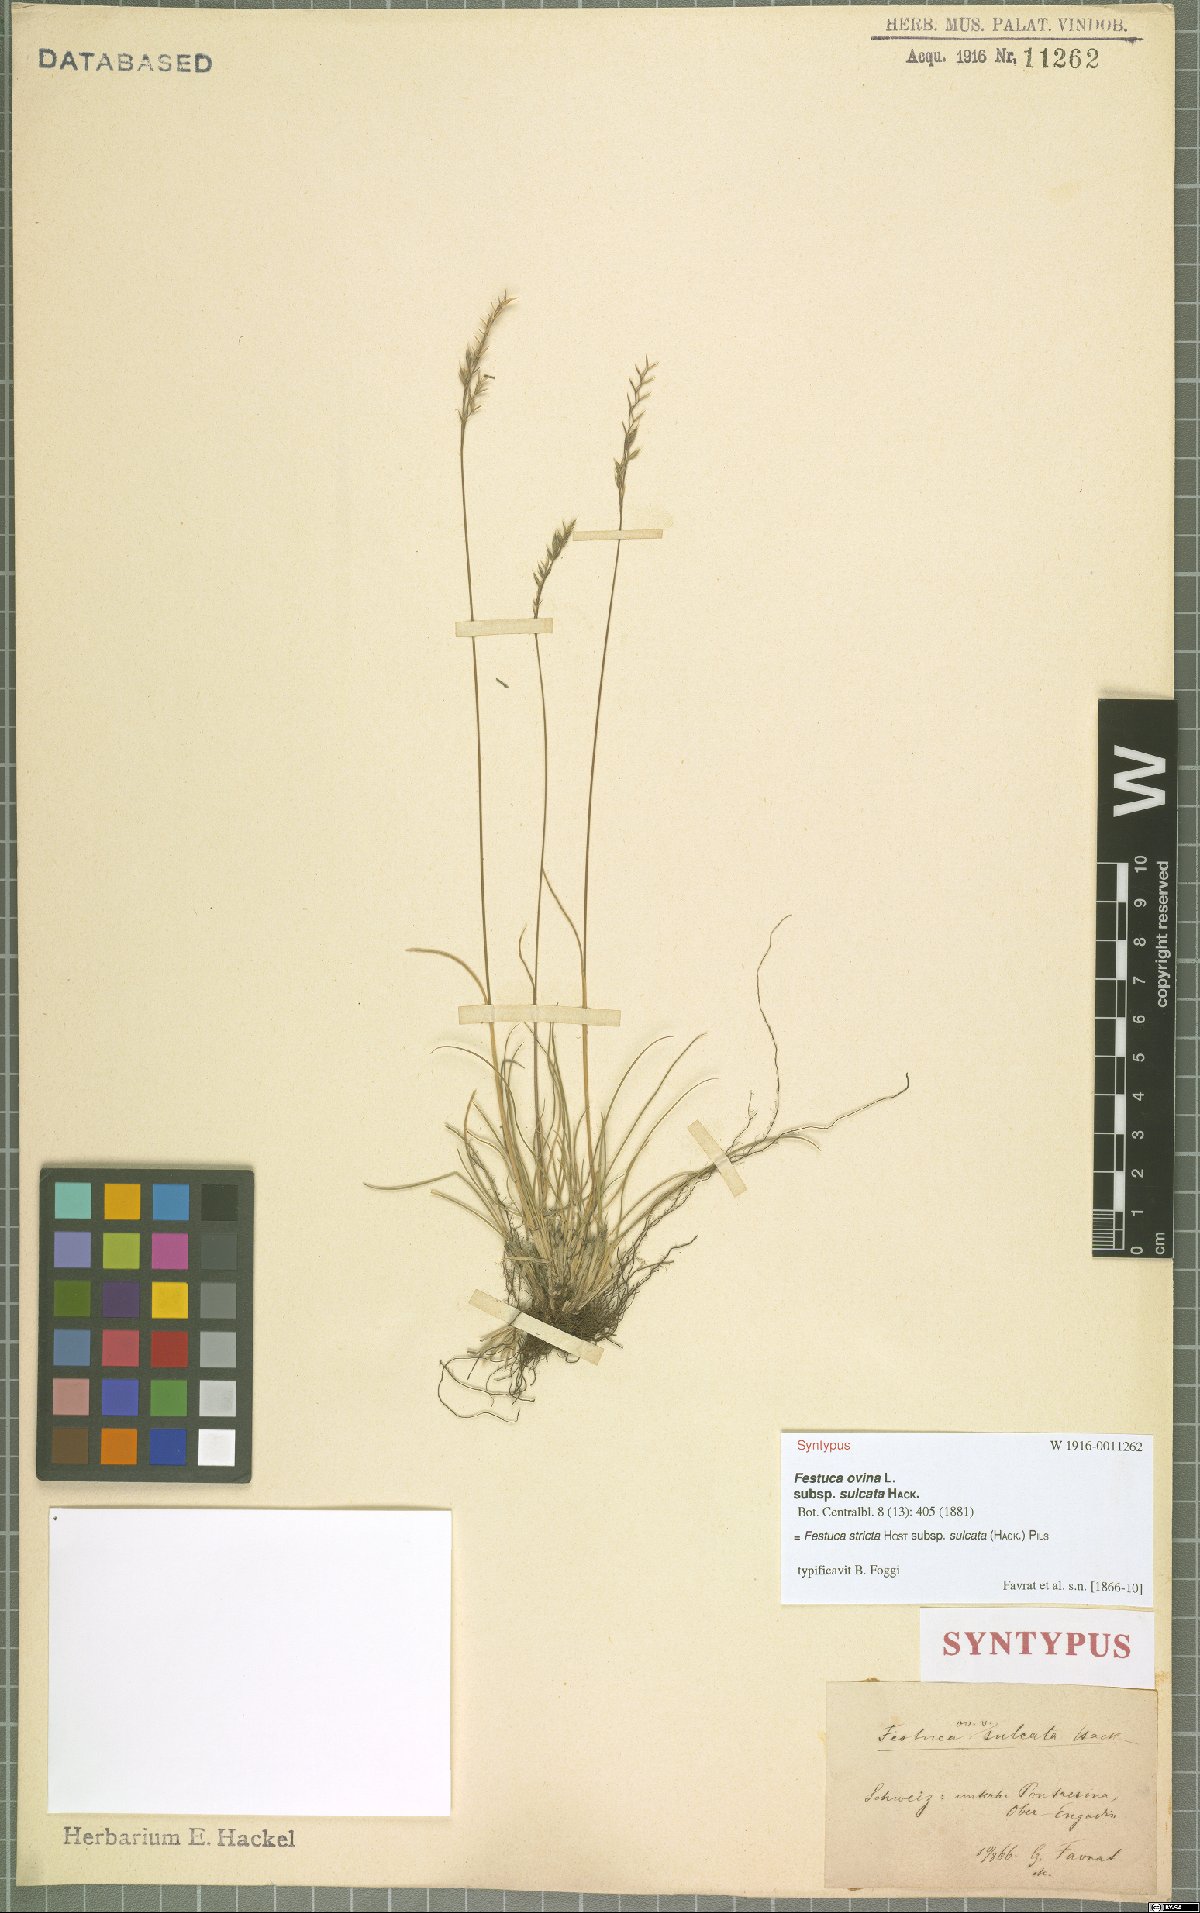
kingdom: Plantae
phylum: Tracheophyta
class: Liliopsida
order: Poales
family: Poaceae
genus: Festuca
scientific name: Festuca rupicola
